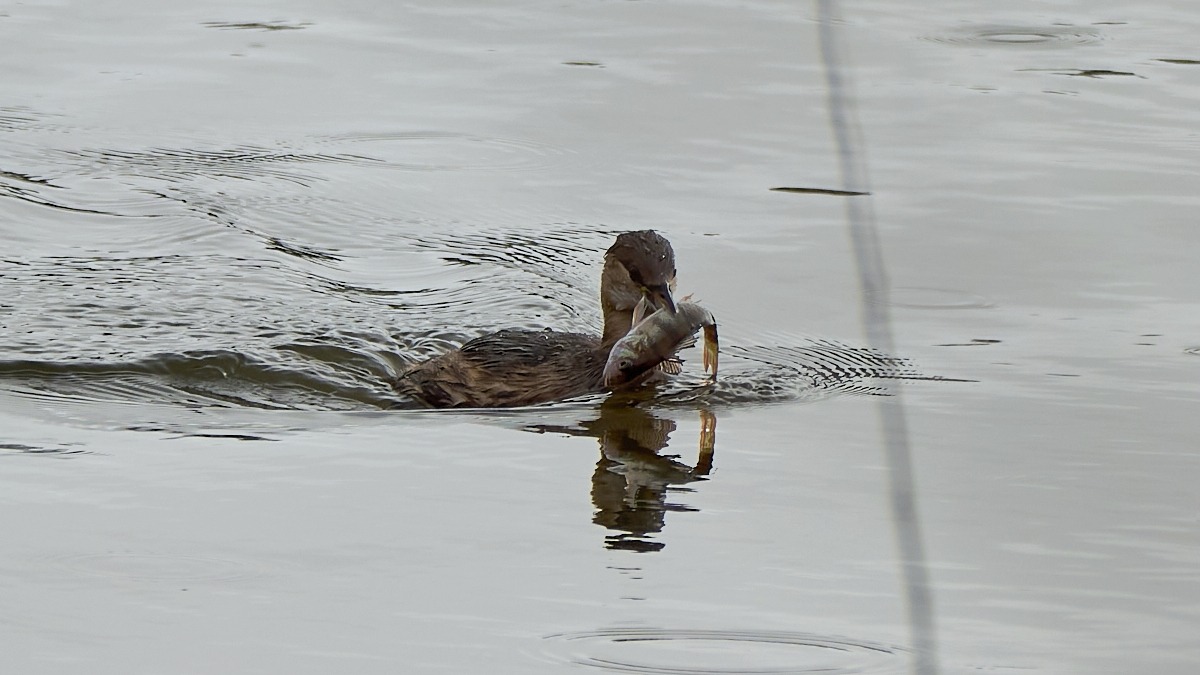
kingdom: Animalia
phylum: Chordata
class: Aves
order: Podicipediformes
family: Podicipedidae
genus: Tachybaptus
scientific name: Tachybaptus ruficollis
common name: Lille lappedykker
